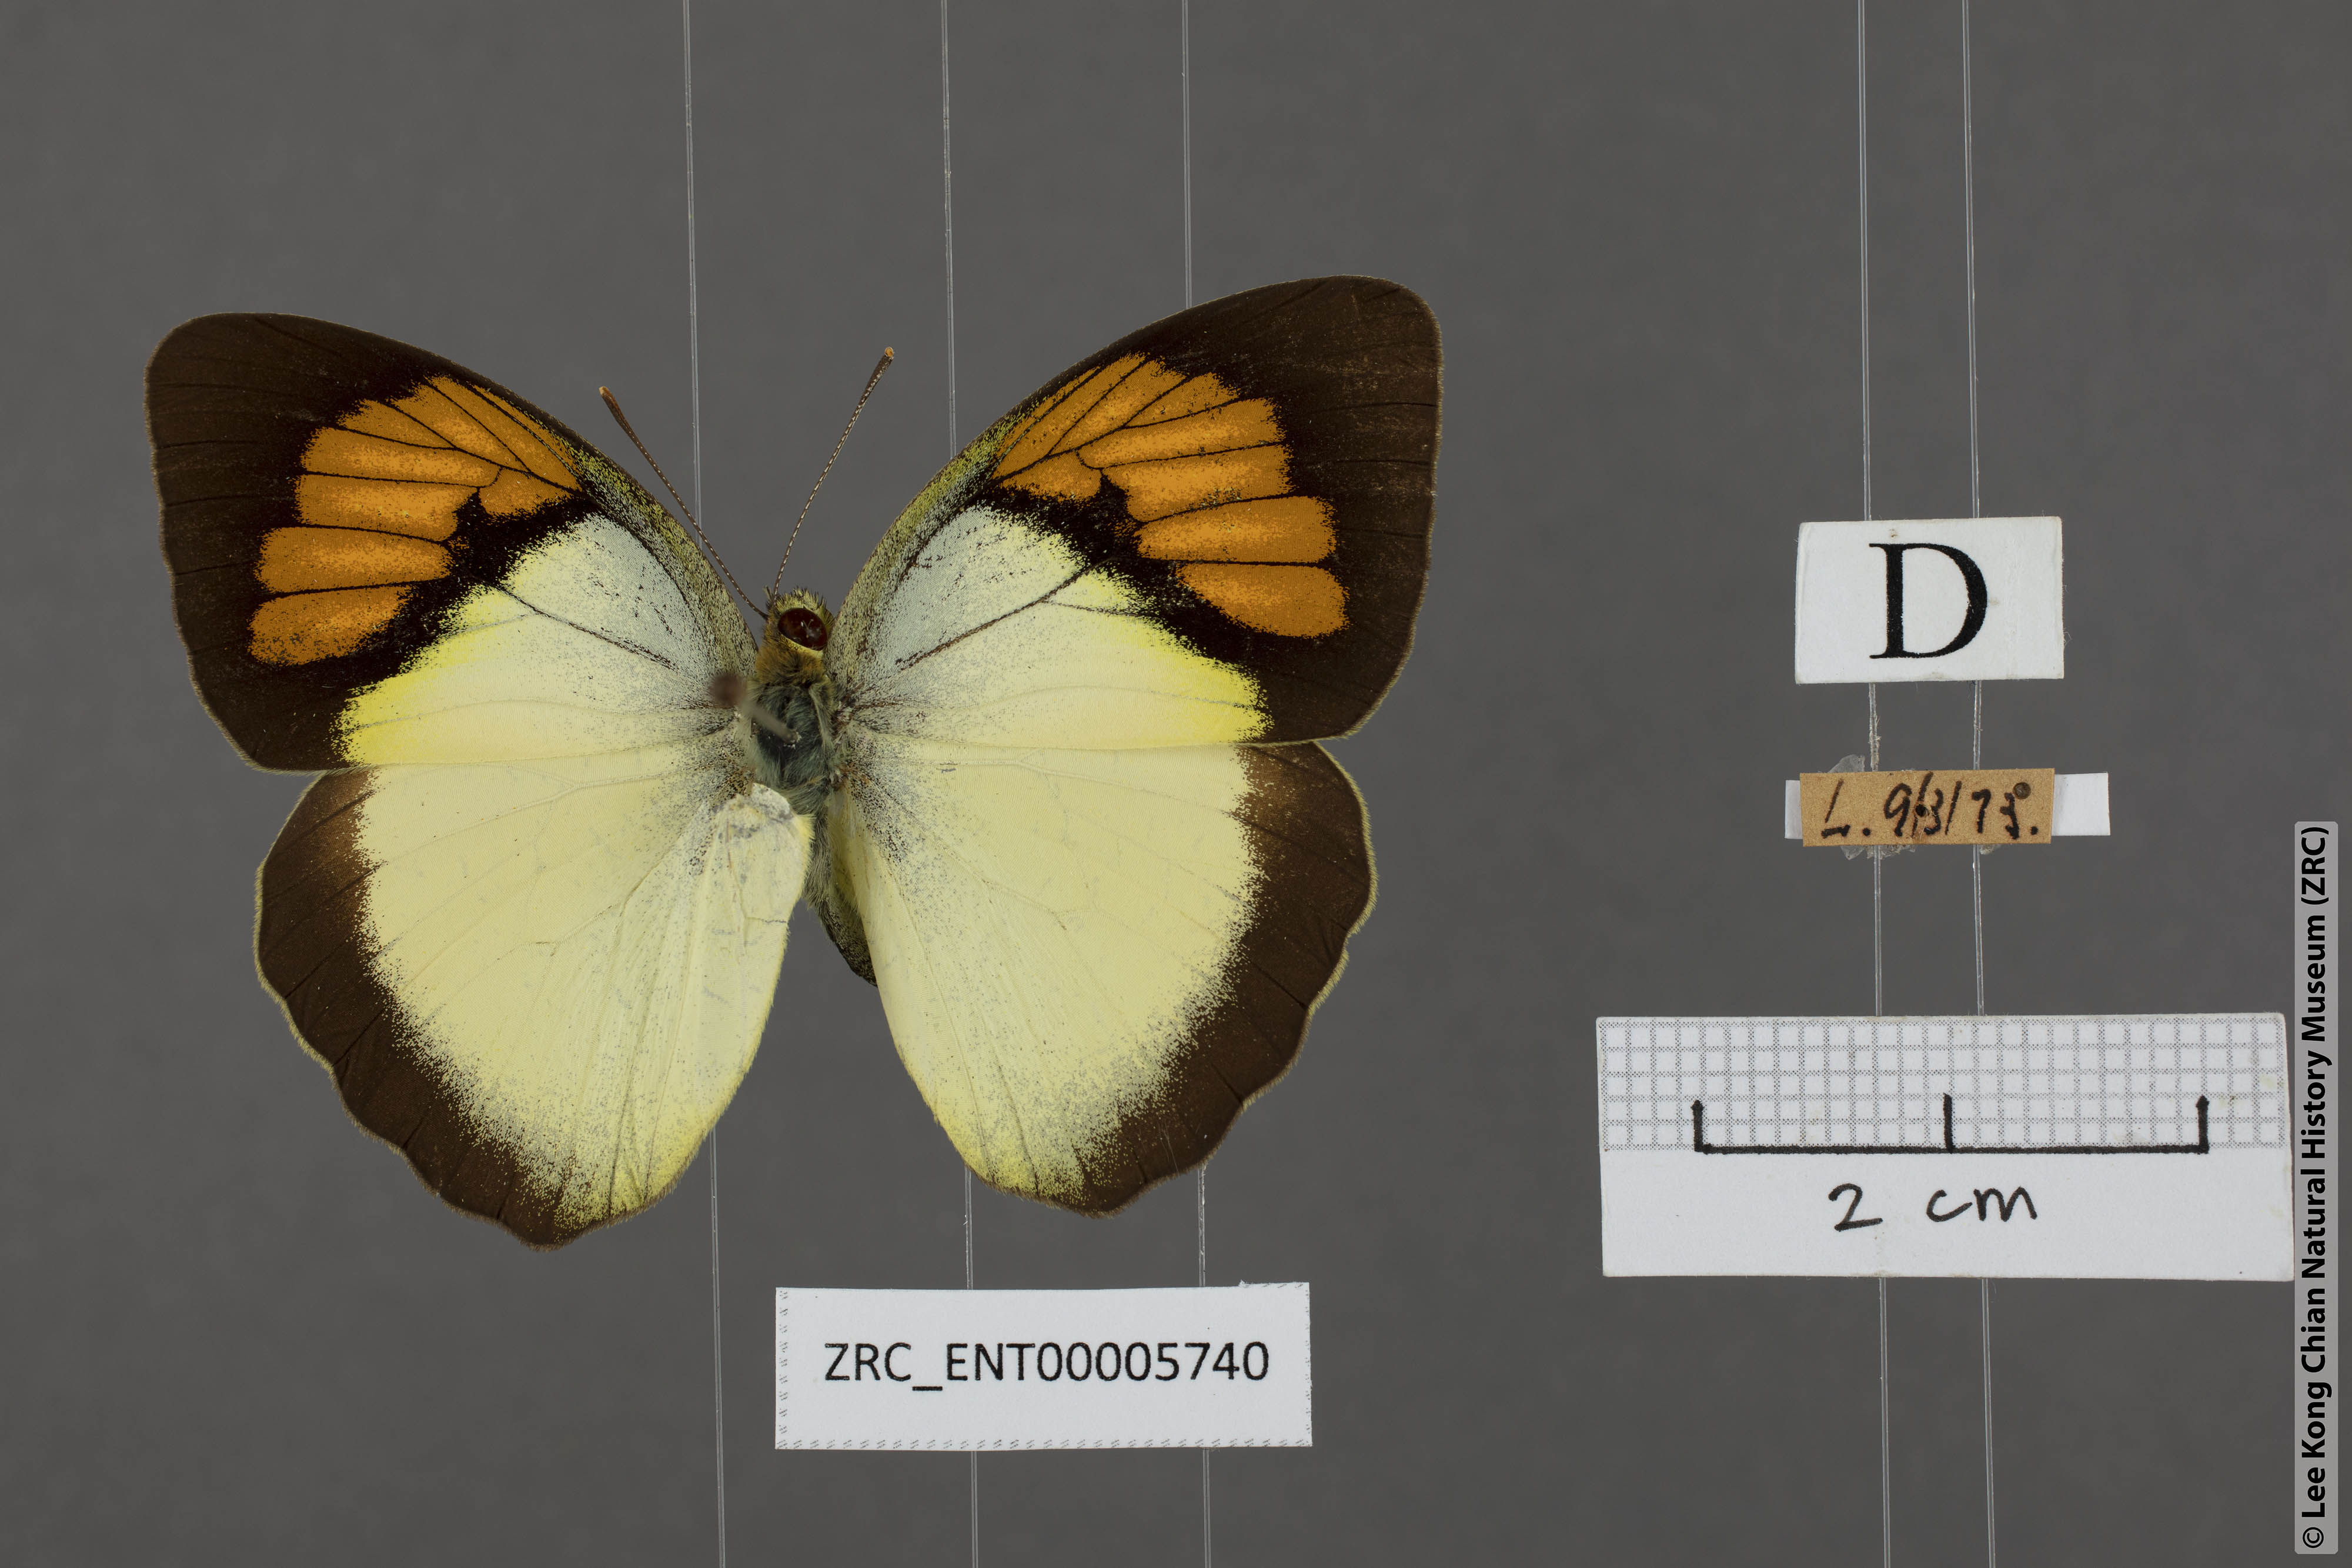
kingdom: Animalia
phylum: Arthropoda
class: Insecta
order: Lepidoptera
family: Pieridae
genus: Ixias
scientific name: Ixias pyrene
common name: Yellow orange tip
